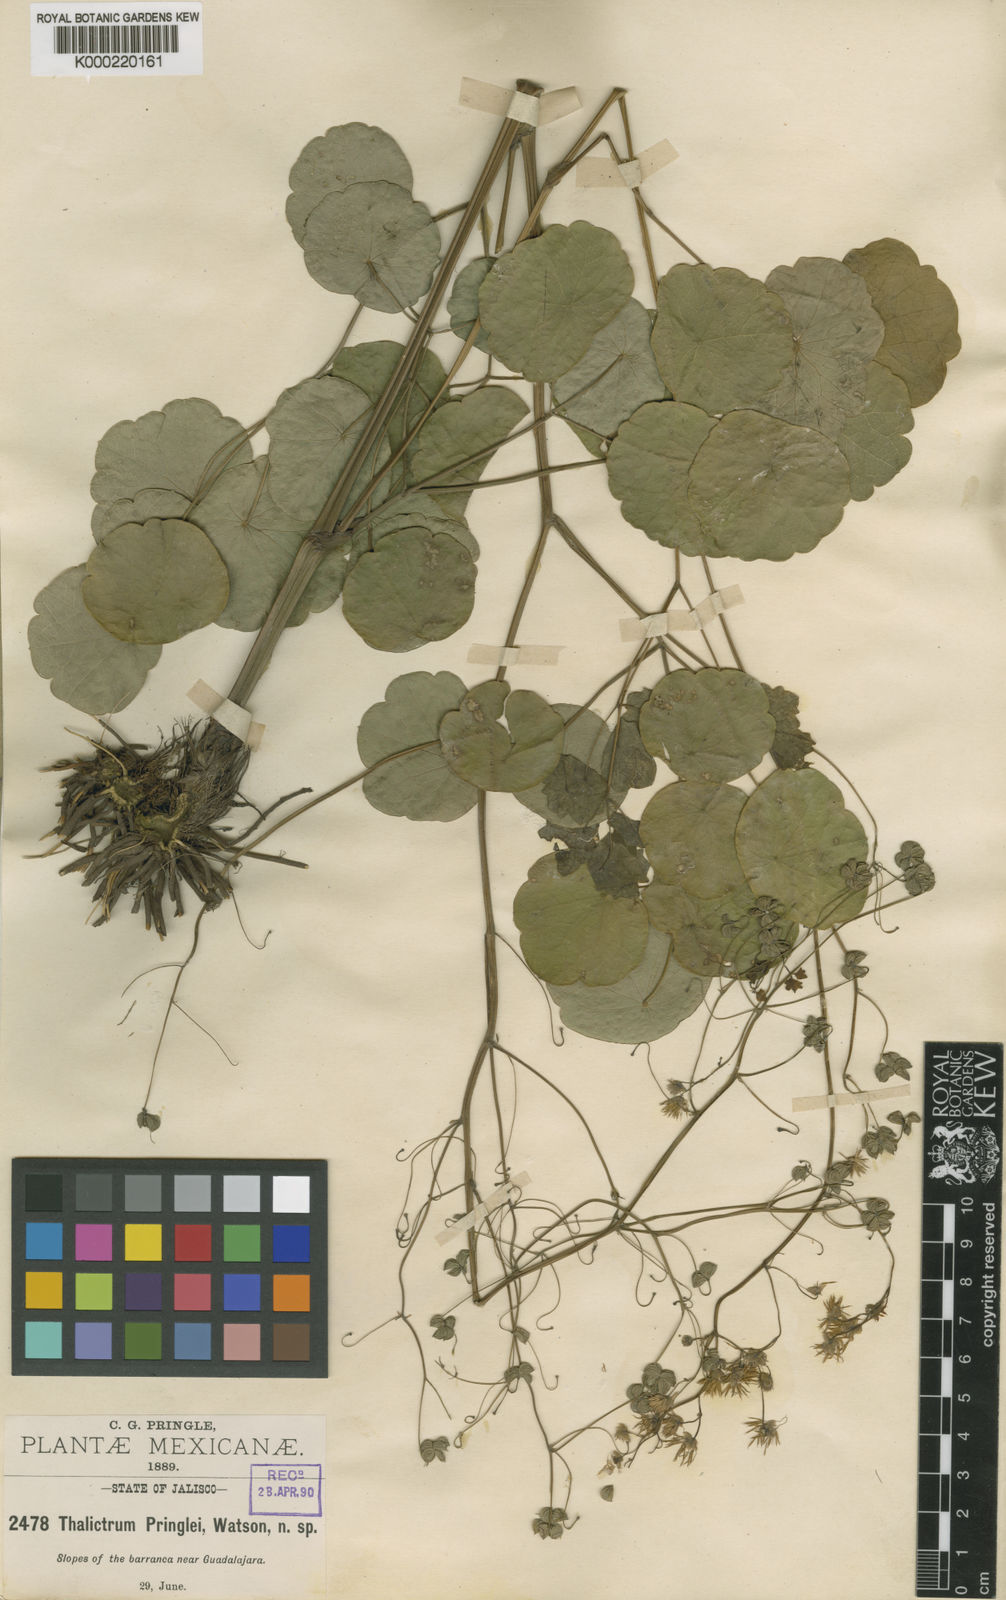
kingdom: Plantae
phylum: Tracheophyta
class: Magnoliopsida
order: Ranunculales
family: Ranunculaceae
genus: Thalictrum
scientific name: Thalictrum pringlei
